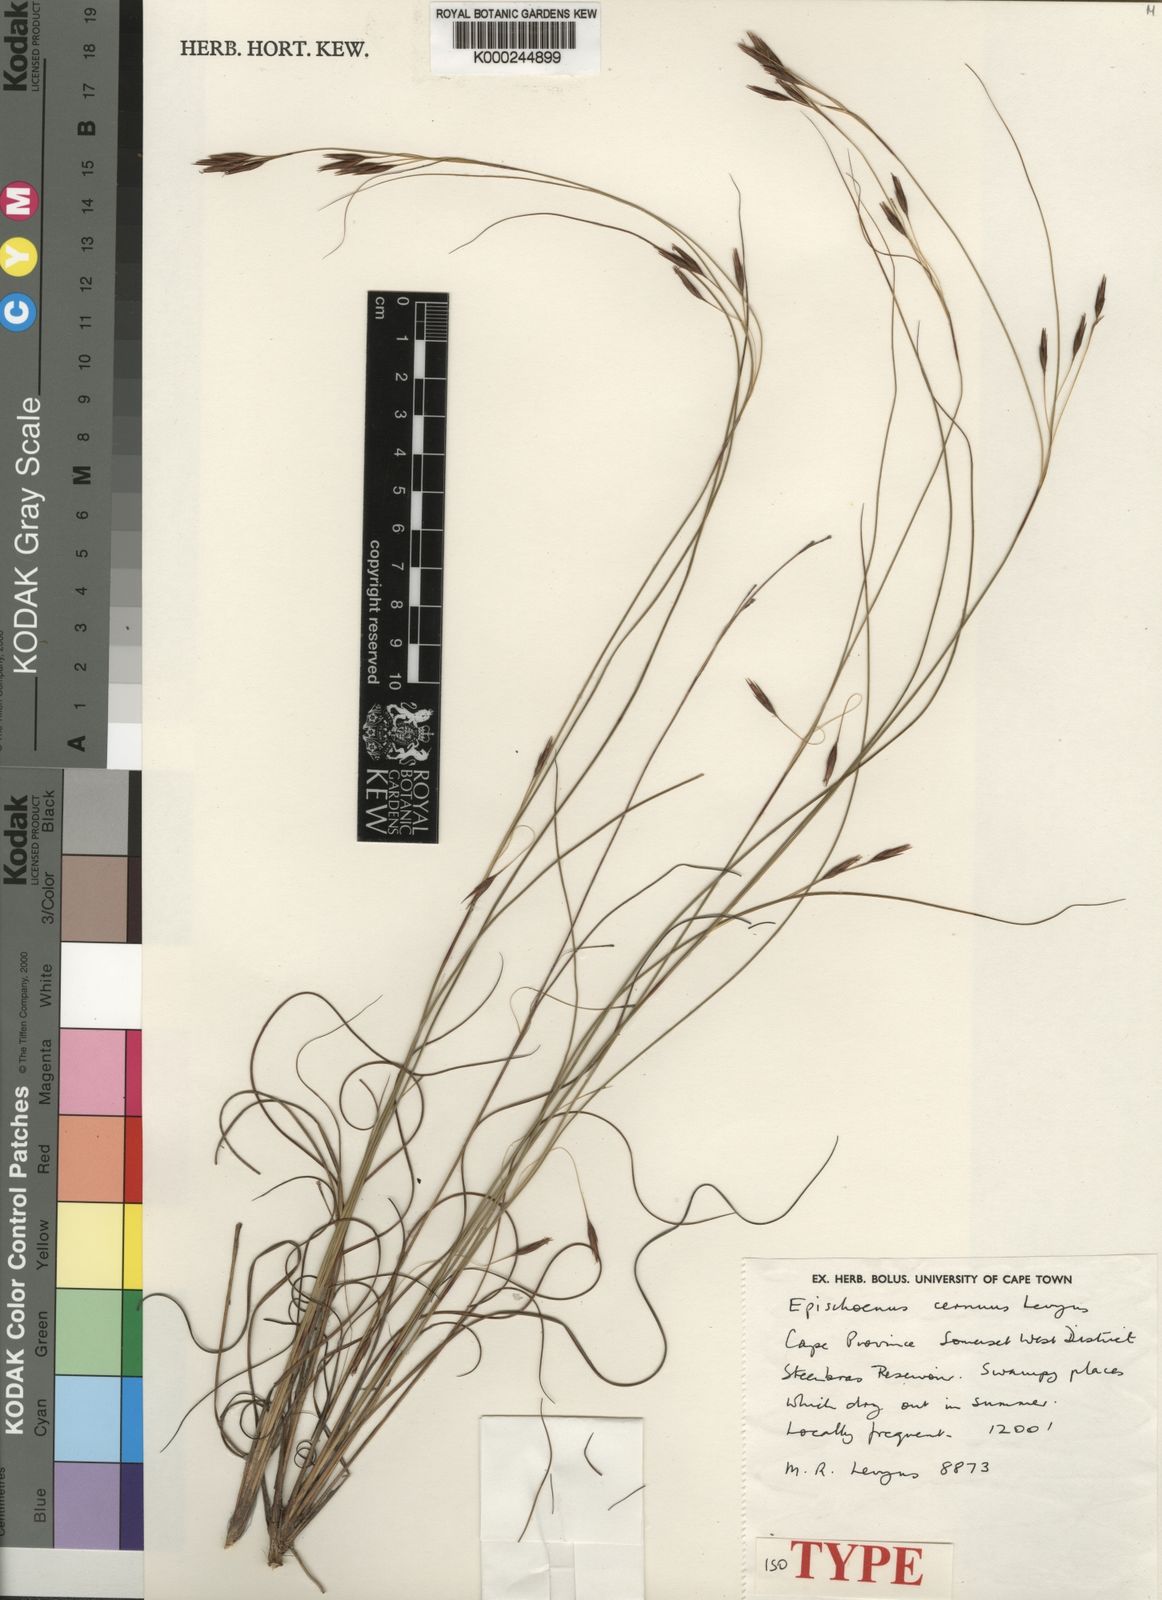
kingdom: Plantae
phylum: Tracheophyta
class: Liliopsida
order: Poales
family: Cyperaceae
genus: Tetraria
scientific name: Tetraria cernua
